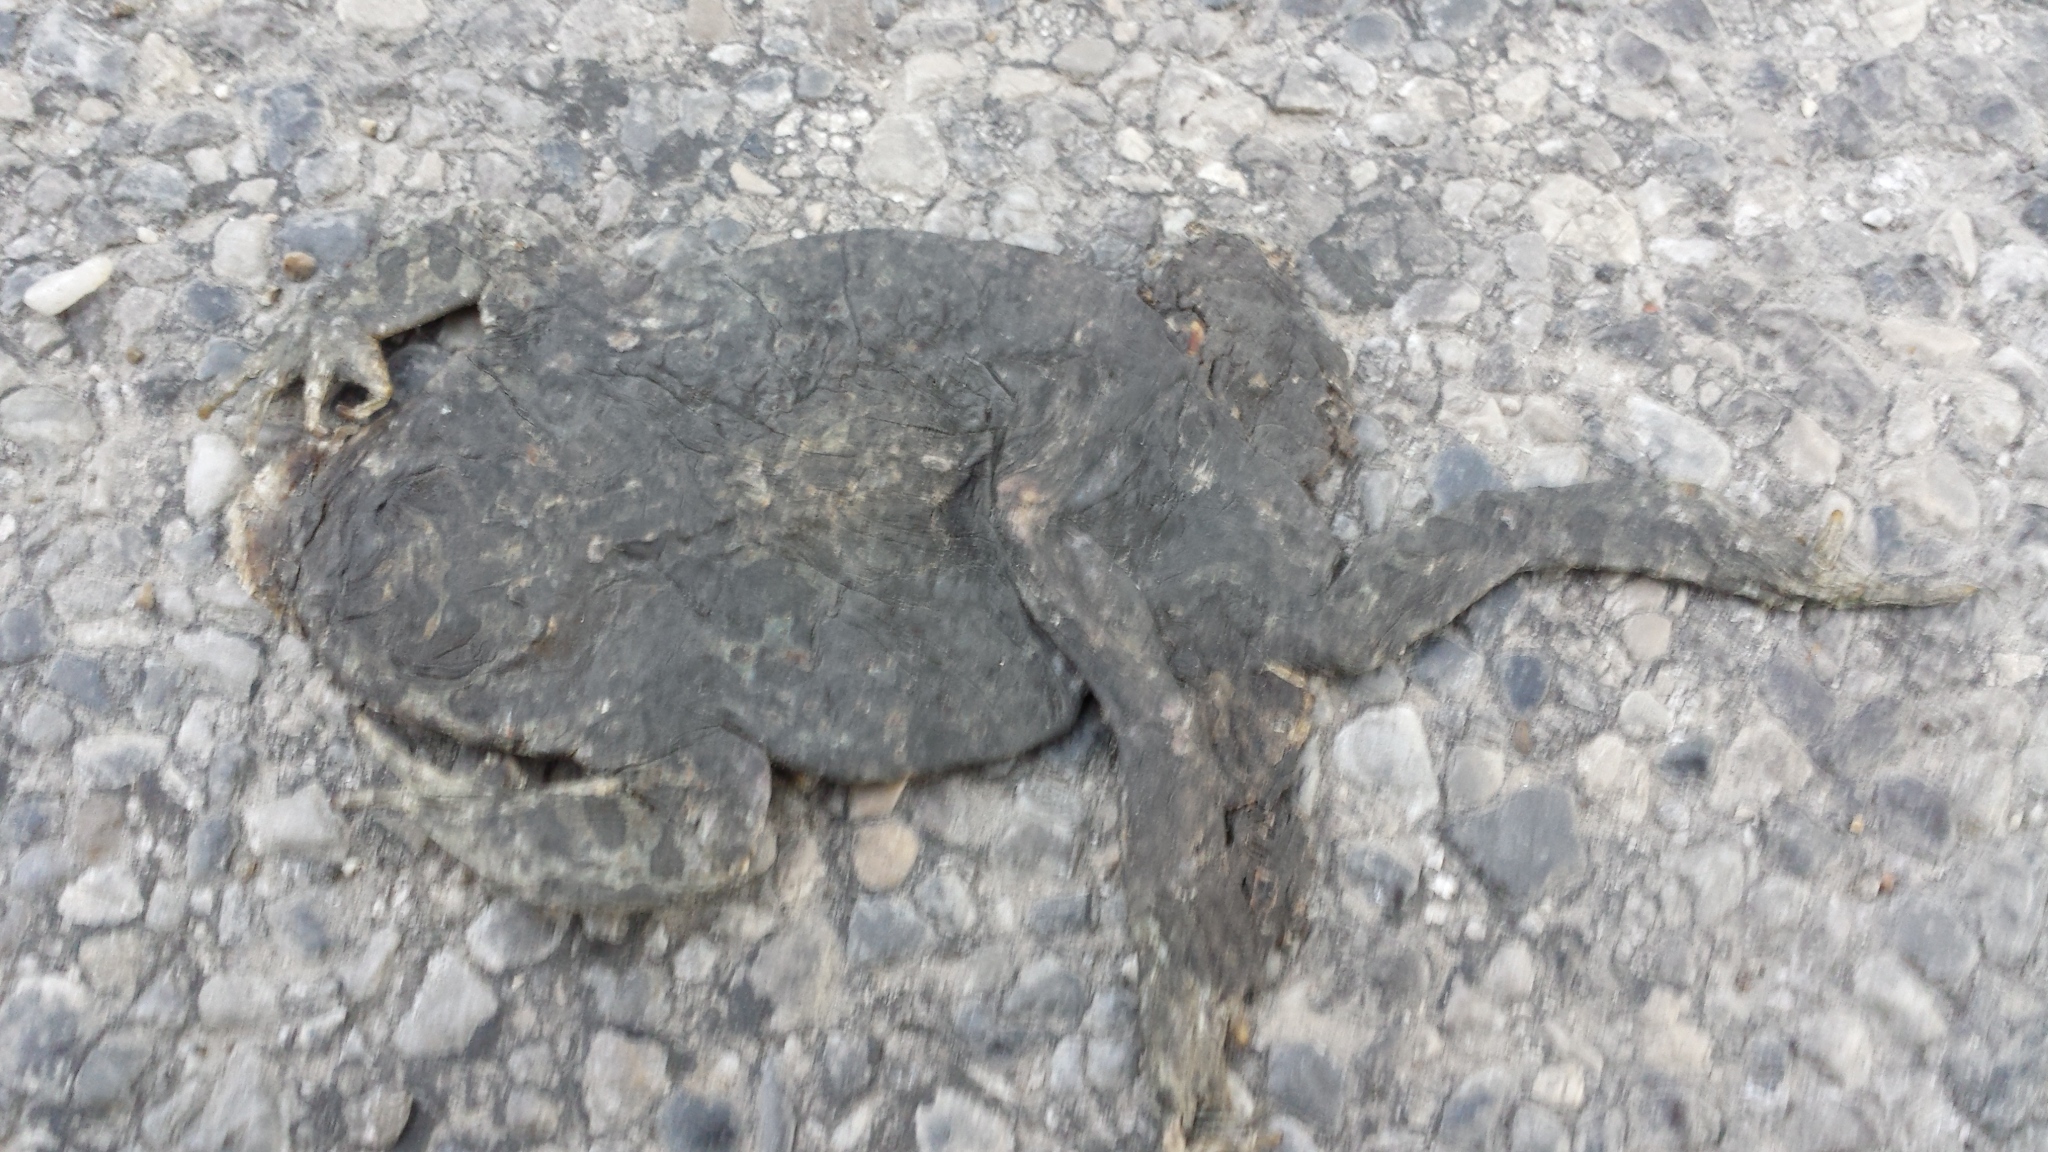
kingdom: Animalia
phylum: Chordata
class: Amphibia
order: Anura
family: Bufonidae
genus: Bufotes
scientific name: Bufotes viridis
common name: European green toad
